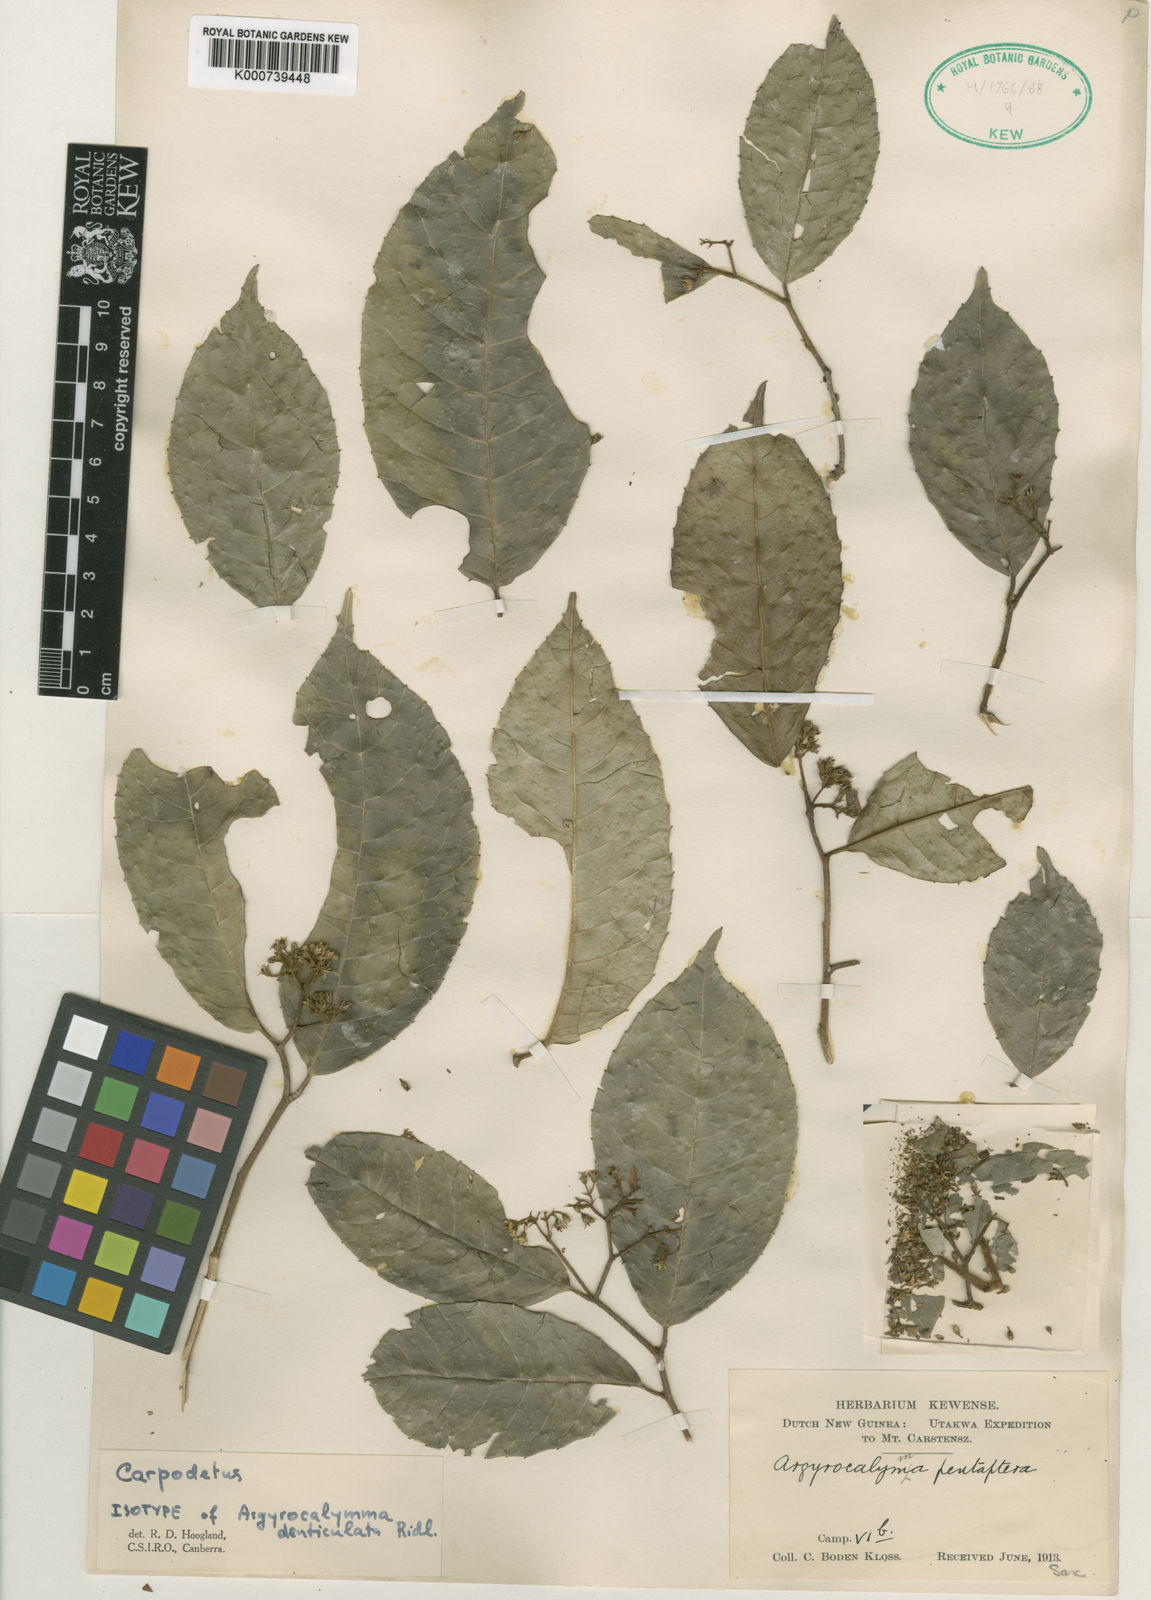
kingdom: Plantae
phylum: Tracheophyta
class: Magnoliopsida
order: Asterales
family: Rousseaceae
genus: Carpodetus
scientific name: Carpodetus
